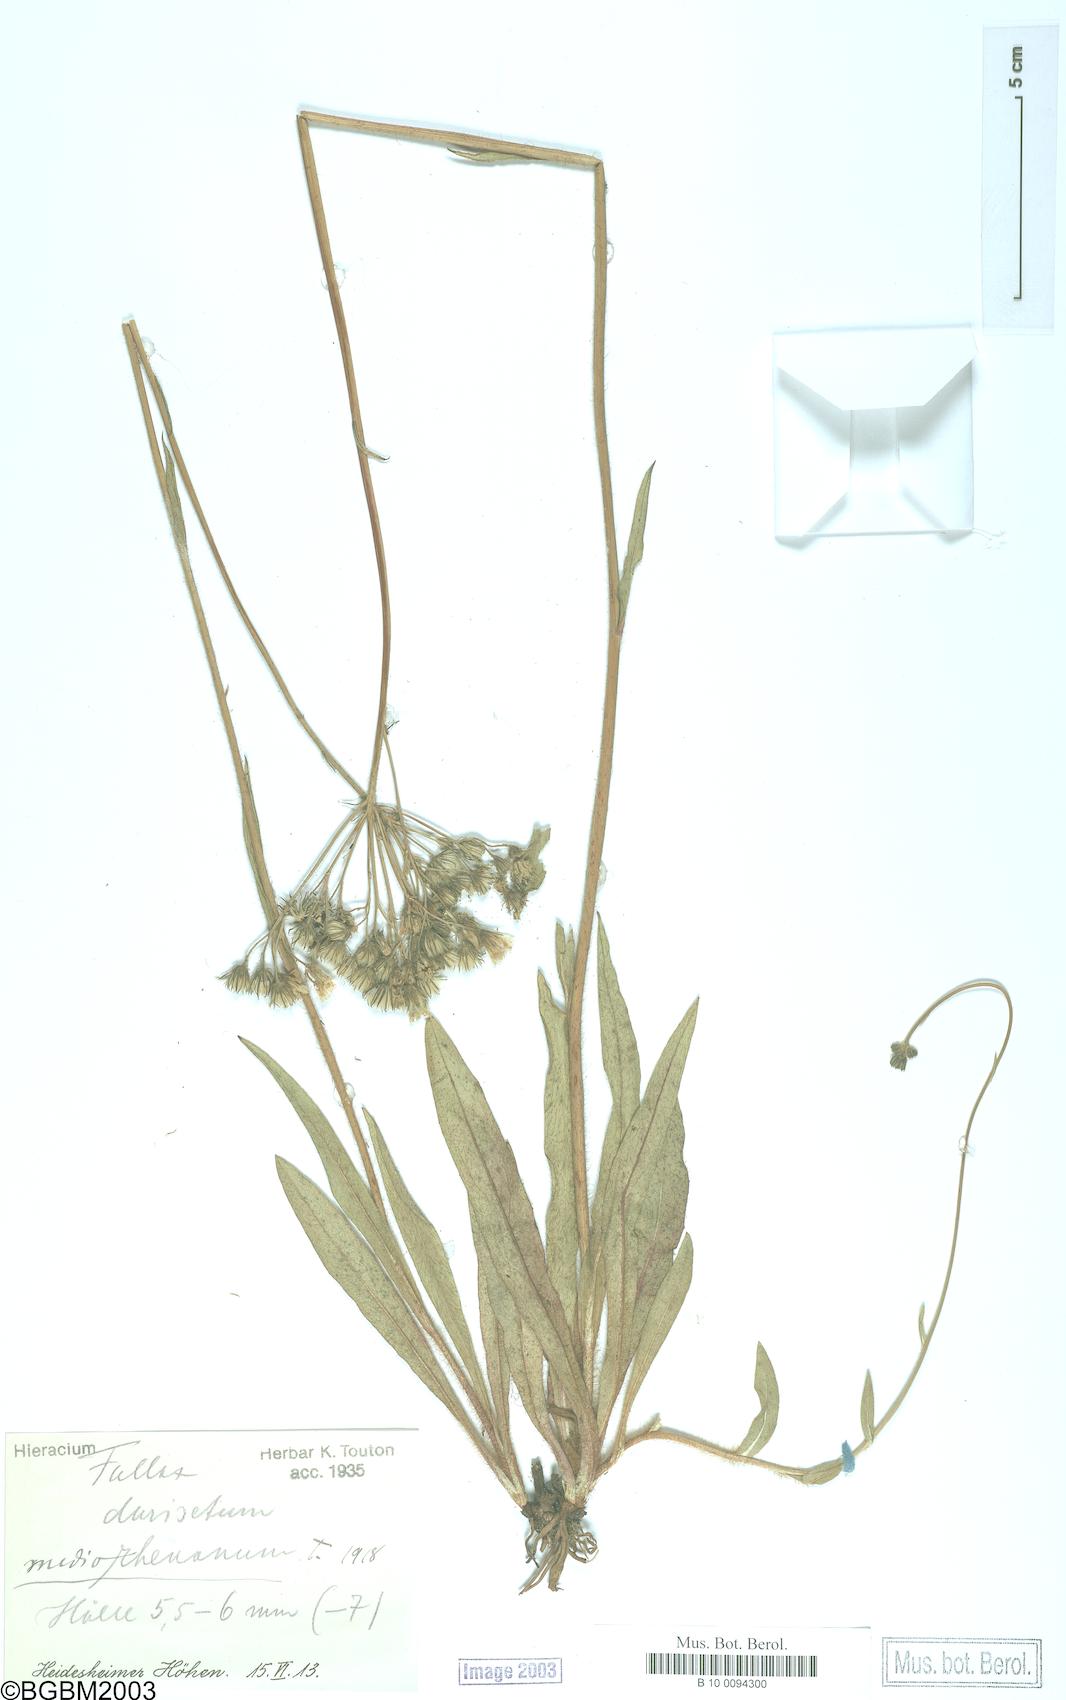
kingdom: Plantae
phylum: Tracheophyta
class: Magnoliopsida
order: Asterales
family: Asteraceae
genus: Hieracium
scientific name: Hieracium fallax
